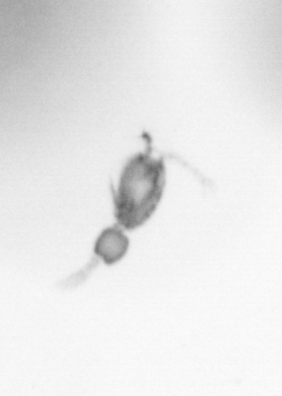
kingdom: Animalia
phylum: Arthropoda
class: Copepoda
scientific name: Copepoda
